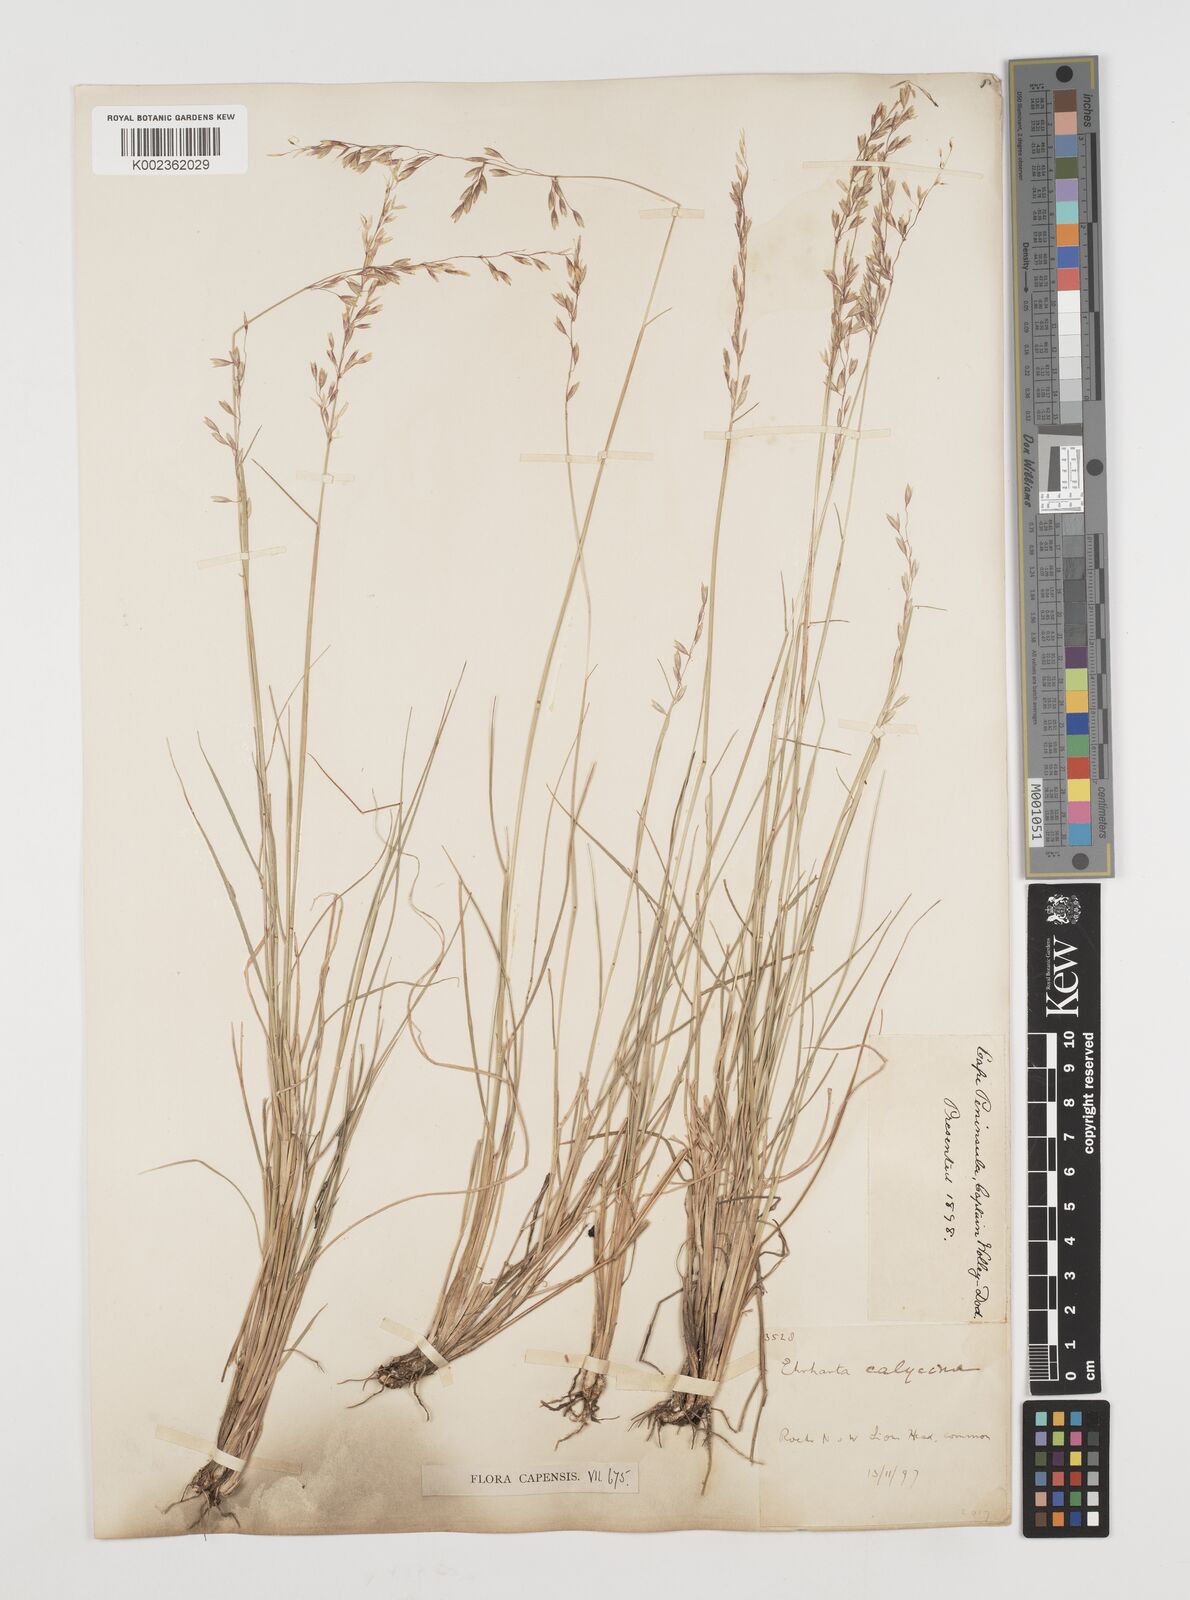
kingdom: Plantae
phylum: Tracheophyta
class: Liliopsida
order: Poales
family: Poaceae
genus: Ehrharta
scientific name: Ehrharta calycina
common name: Perennial veldtgrass
